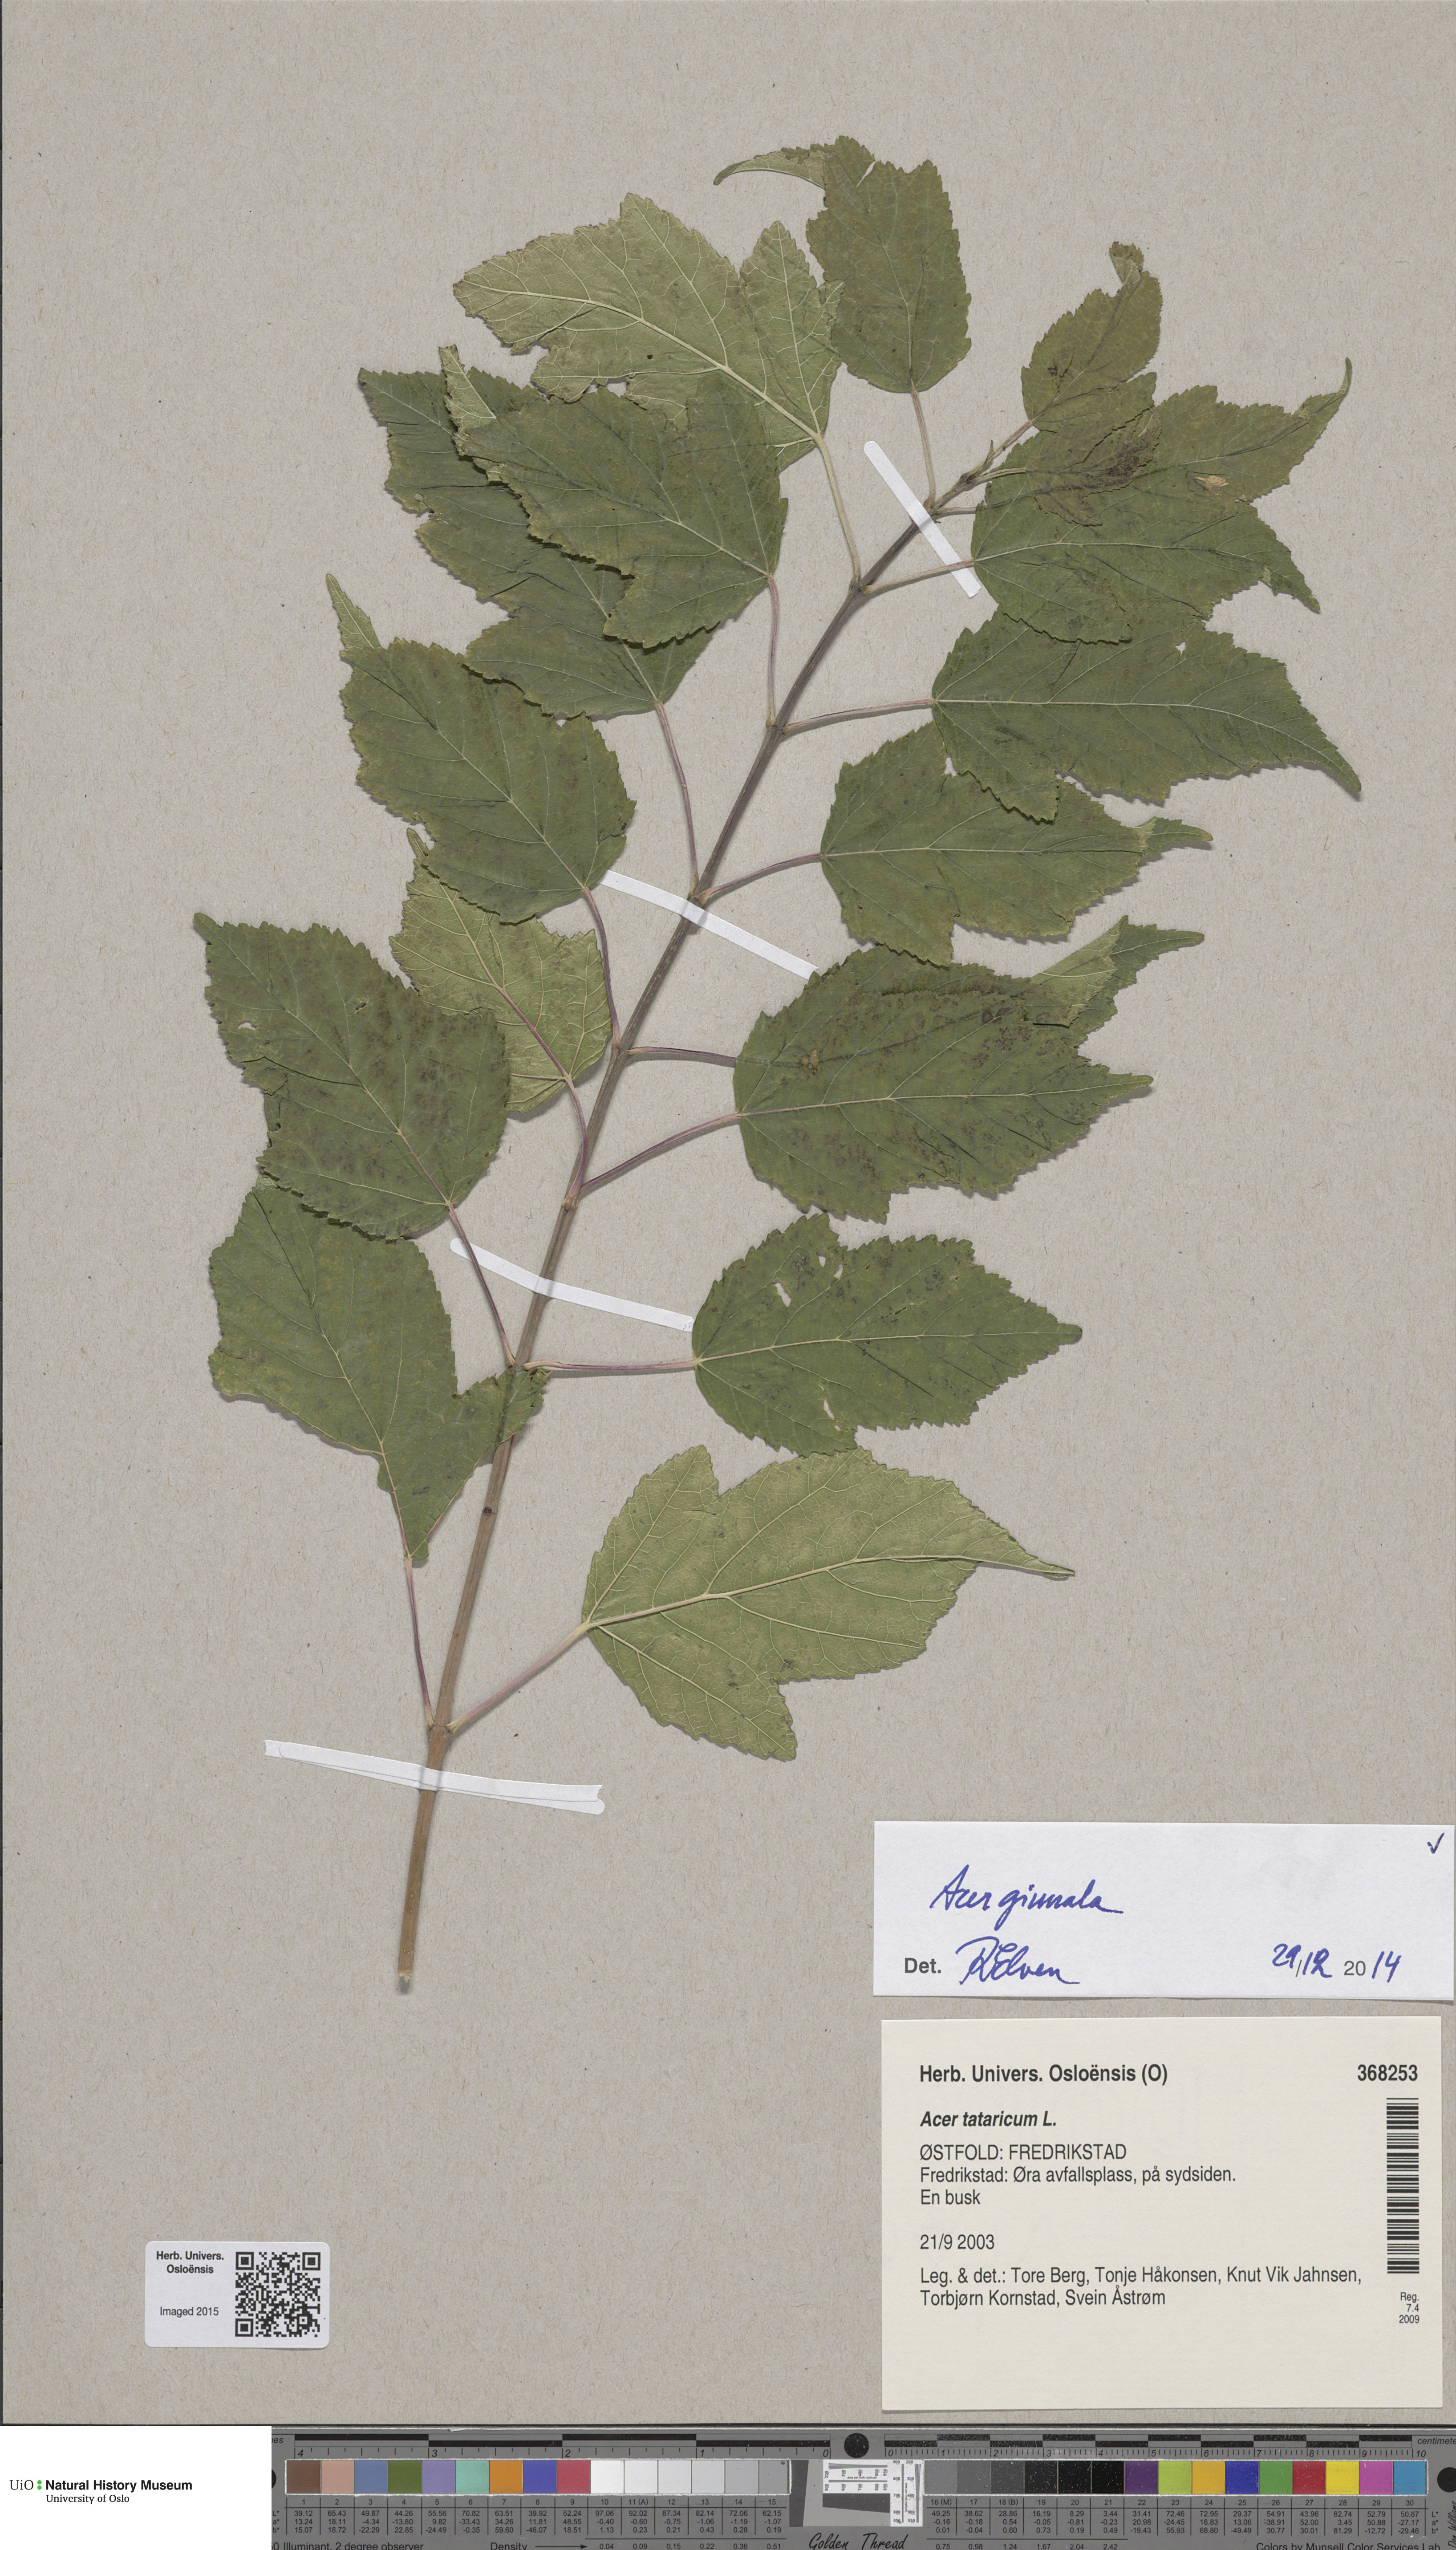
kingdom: Plantae
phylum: Tracheophyta
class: Magnoliopsida
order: Sapindales
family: Sapindaceae
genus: Acer
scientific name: Acer tataricum
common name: Tartar maple
